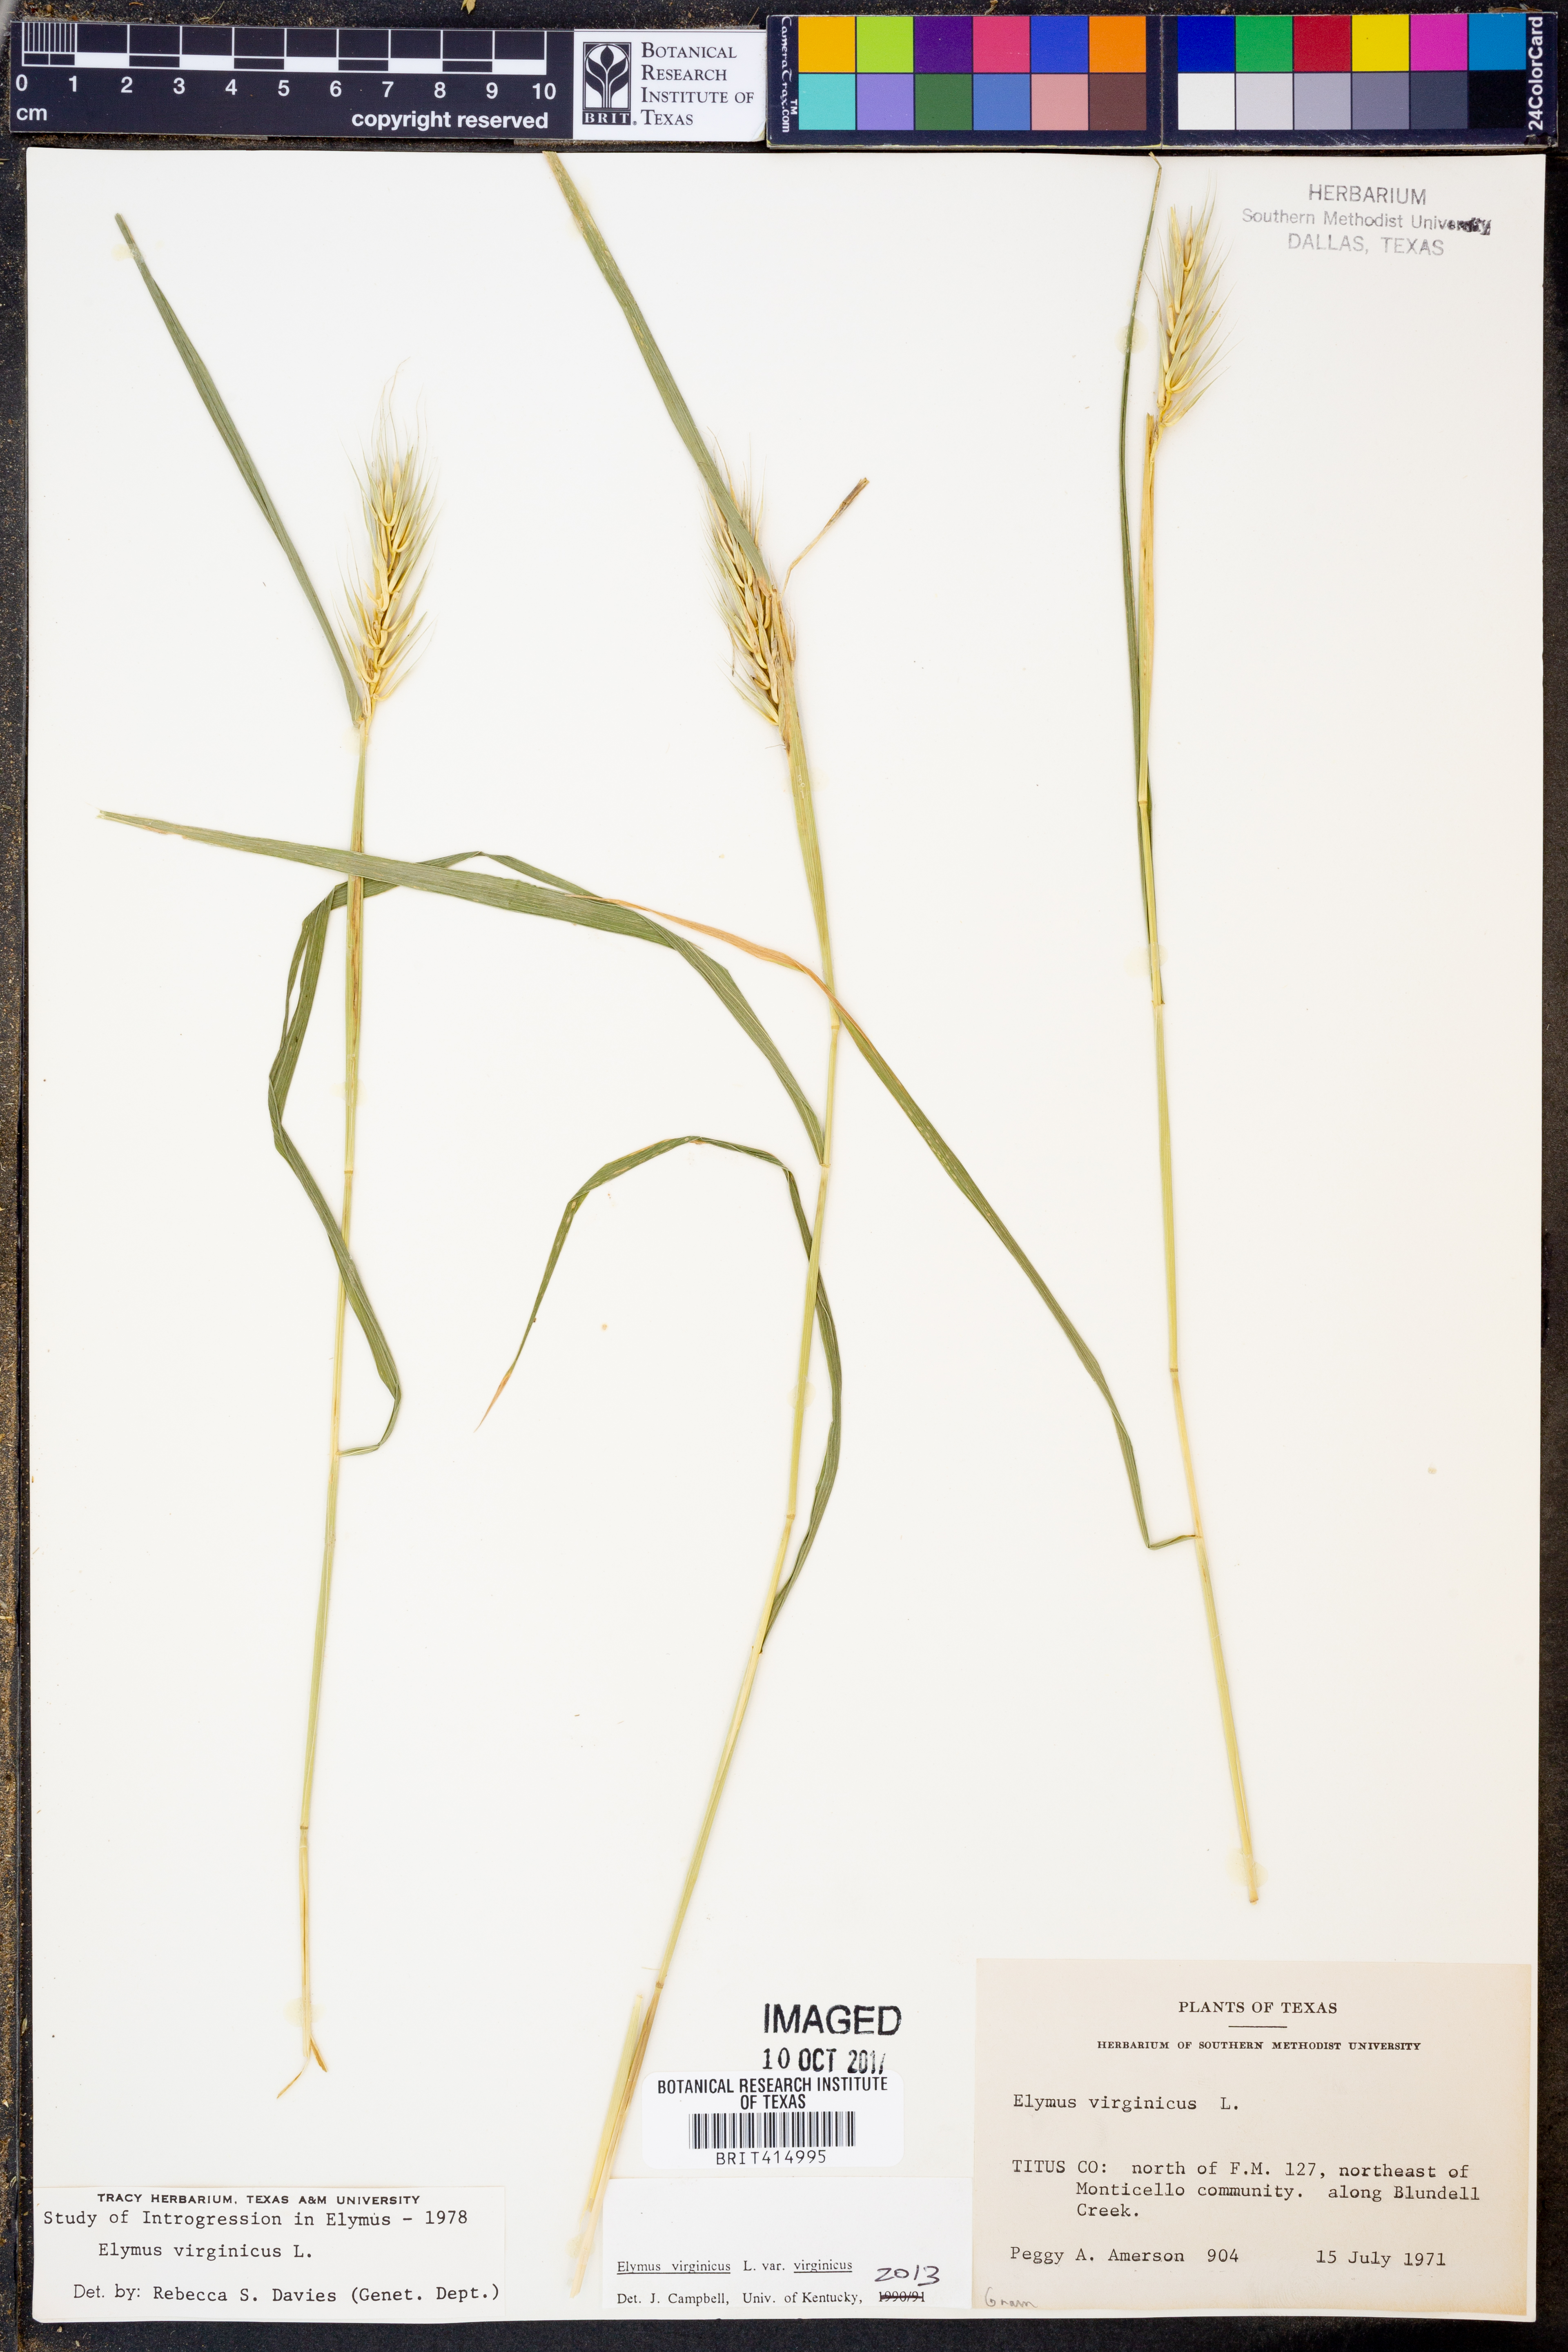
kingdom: Plantae
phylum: Tracheophyta
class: Liliopsida
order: Poales
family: Poaceae
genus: Elymus
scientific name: Elymus virginicus
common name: Common eastern wildrye
